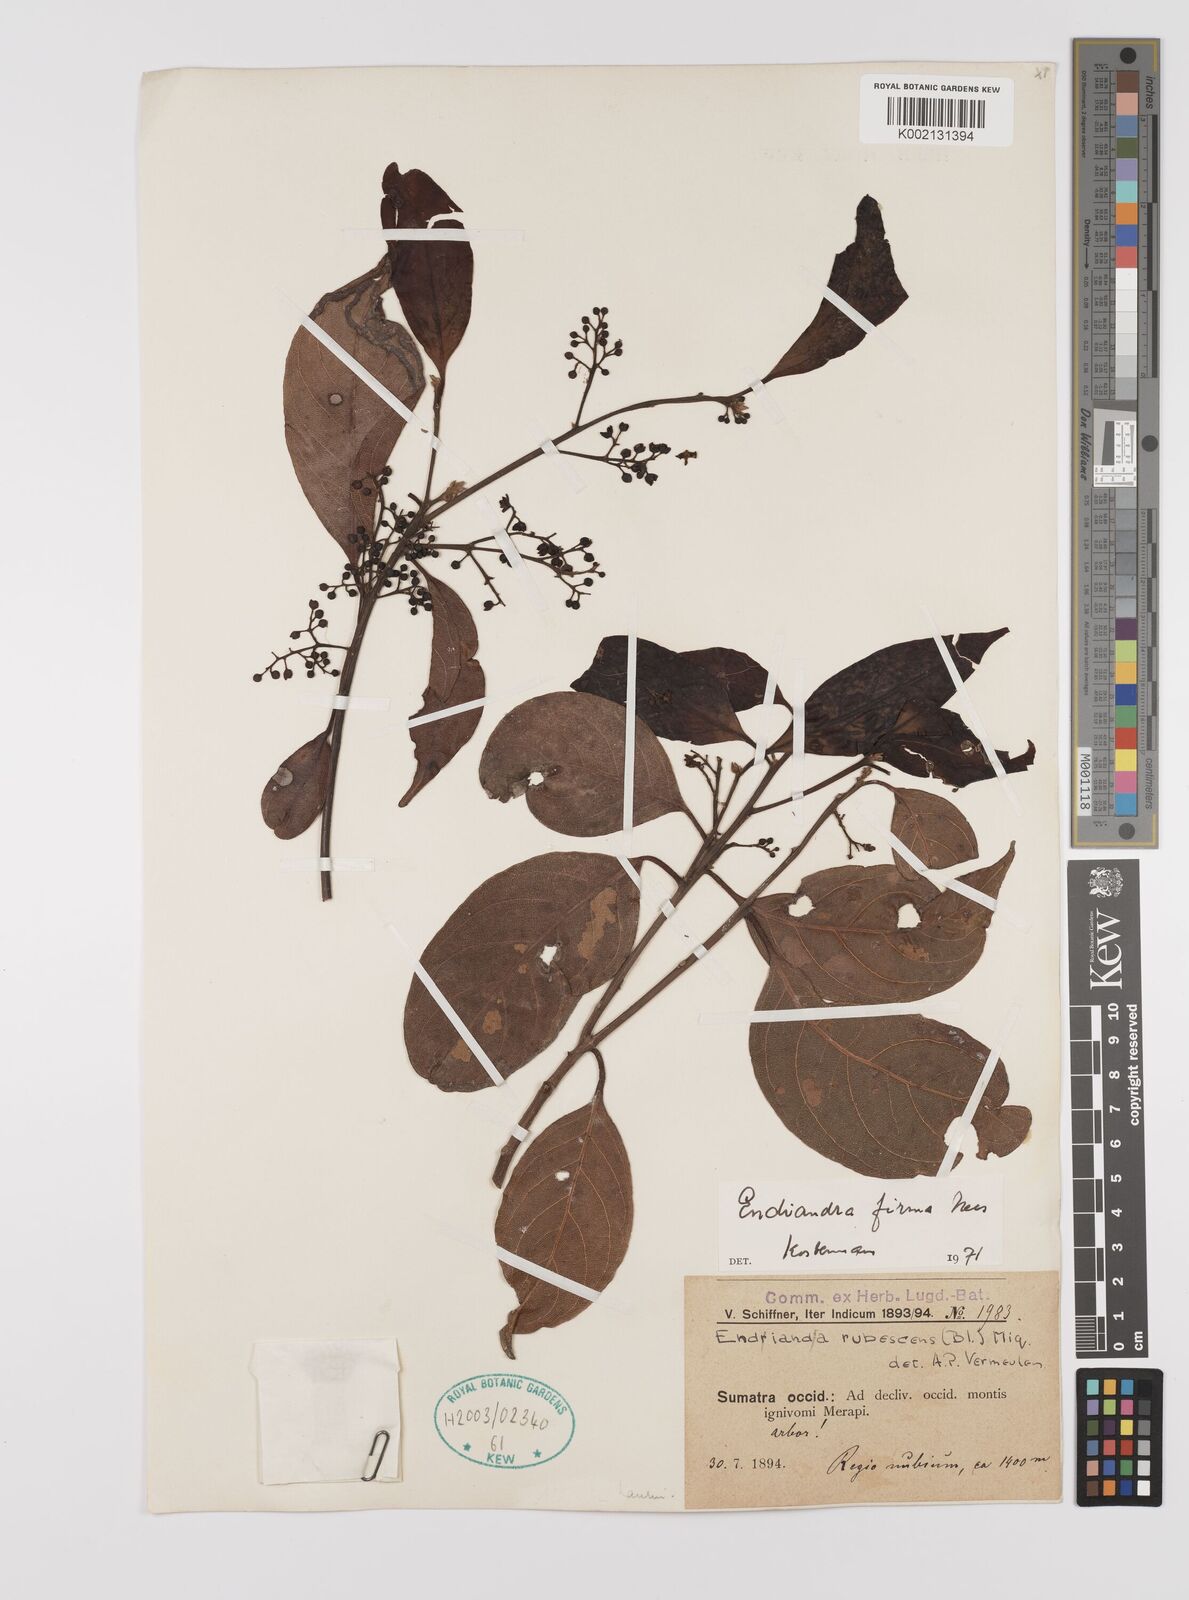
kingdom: Plantae
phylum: Tracheophyta
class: Magnoliopsida
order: Laurales
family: Lauraceae
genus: Endiandra
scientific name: Endiandra firma
